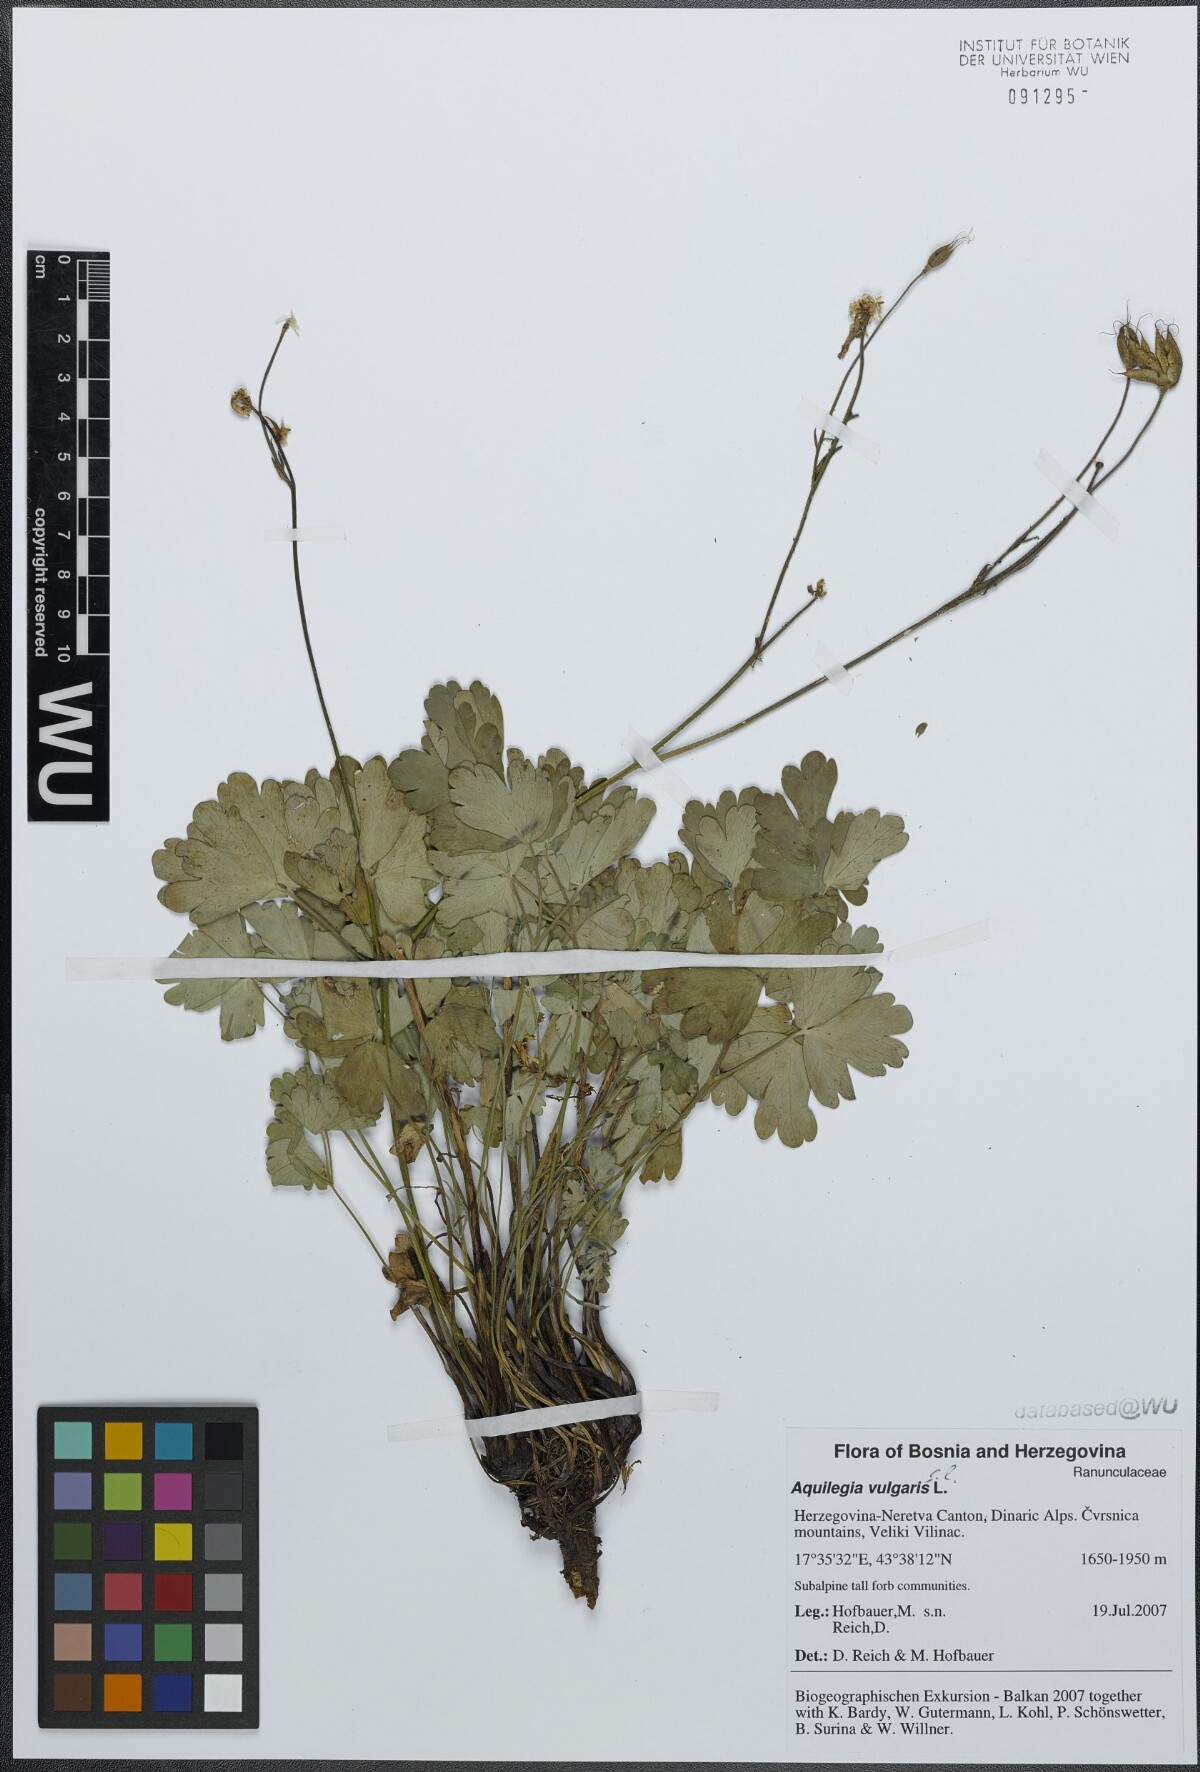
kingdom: Plantae
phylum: Tracheophyta
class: Magnoliopsida
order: Ranunculales
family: Ranunculaceae
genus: Aquilegia
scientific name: Aquilegia vulgaris
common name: Columbine
